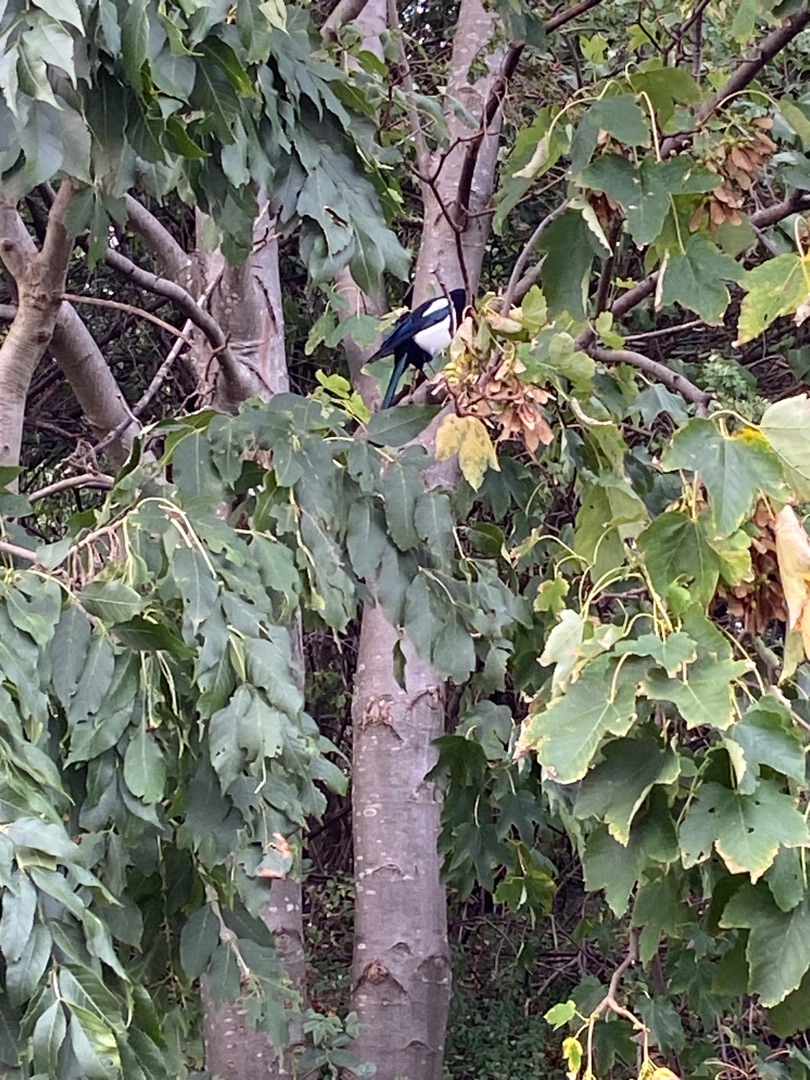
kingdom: Animalia
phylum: Chordata
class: Aves
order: Passeriformes
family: Corvidae
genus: Pica
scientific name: Pica pica
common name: Husskade
